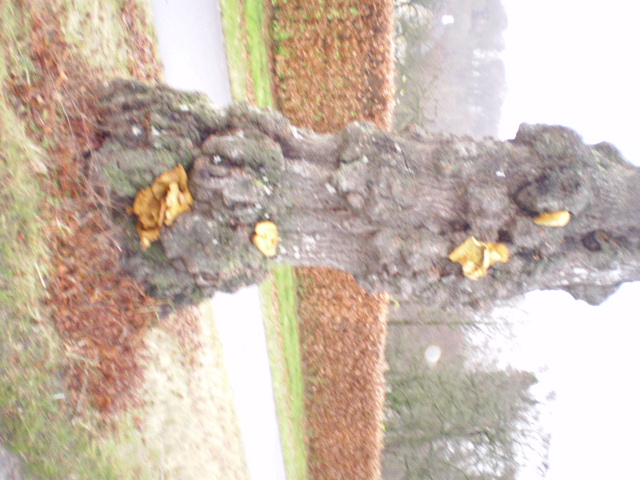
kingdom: Fungi
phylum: Basidiomycota
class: Agaricomycetes
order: Agaricales
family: Strophariaceae
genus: Pholiota
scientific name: Pholiota limonella
